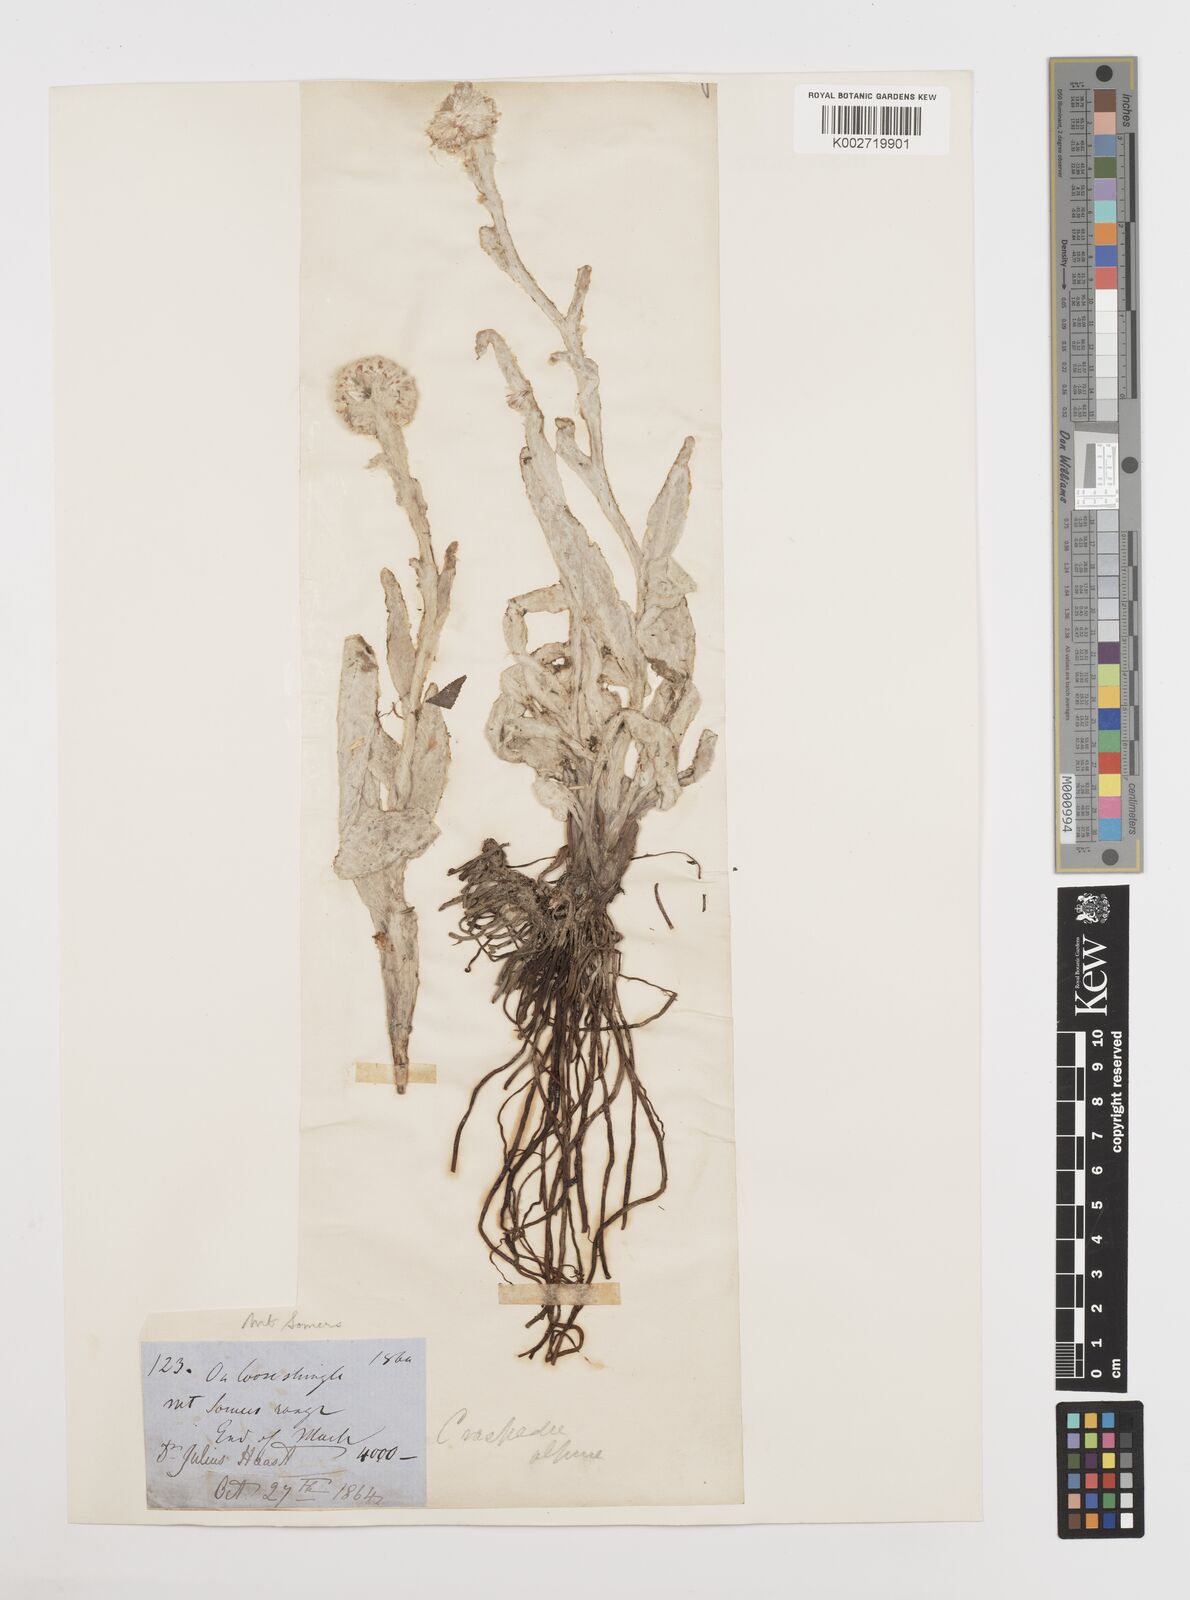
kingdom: Plantae
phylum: Tracheophyta
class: Magnoliopsida
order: Asterales
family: Asteraceae
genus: Craspedia
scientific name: Craspedia uniflora
